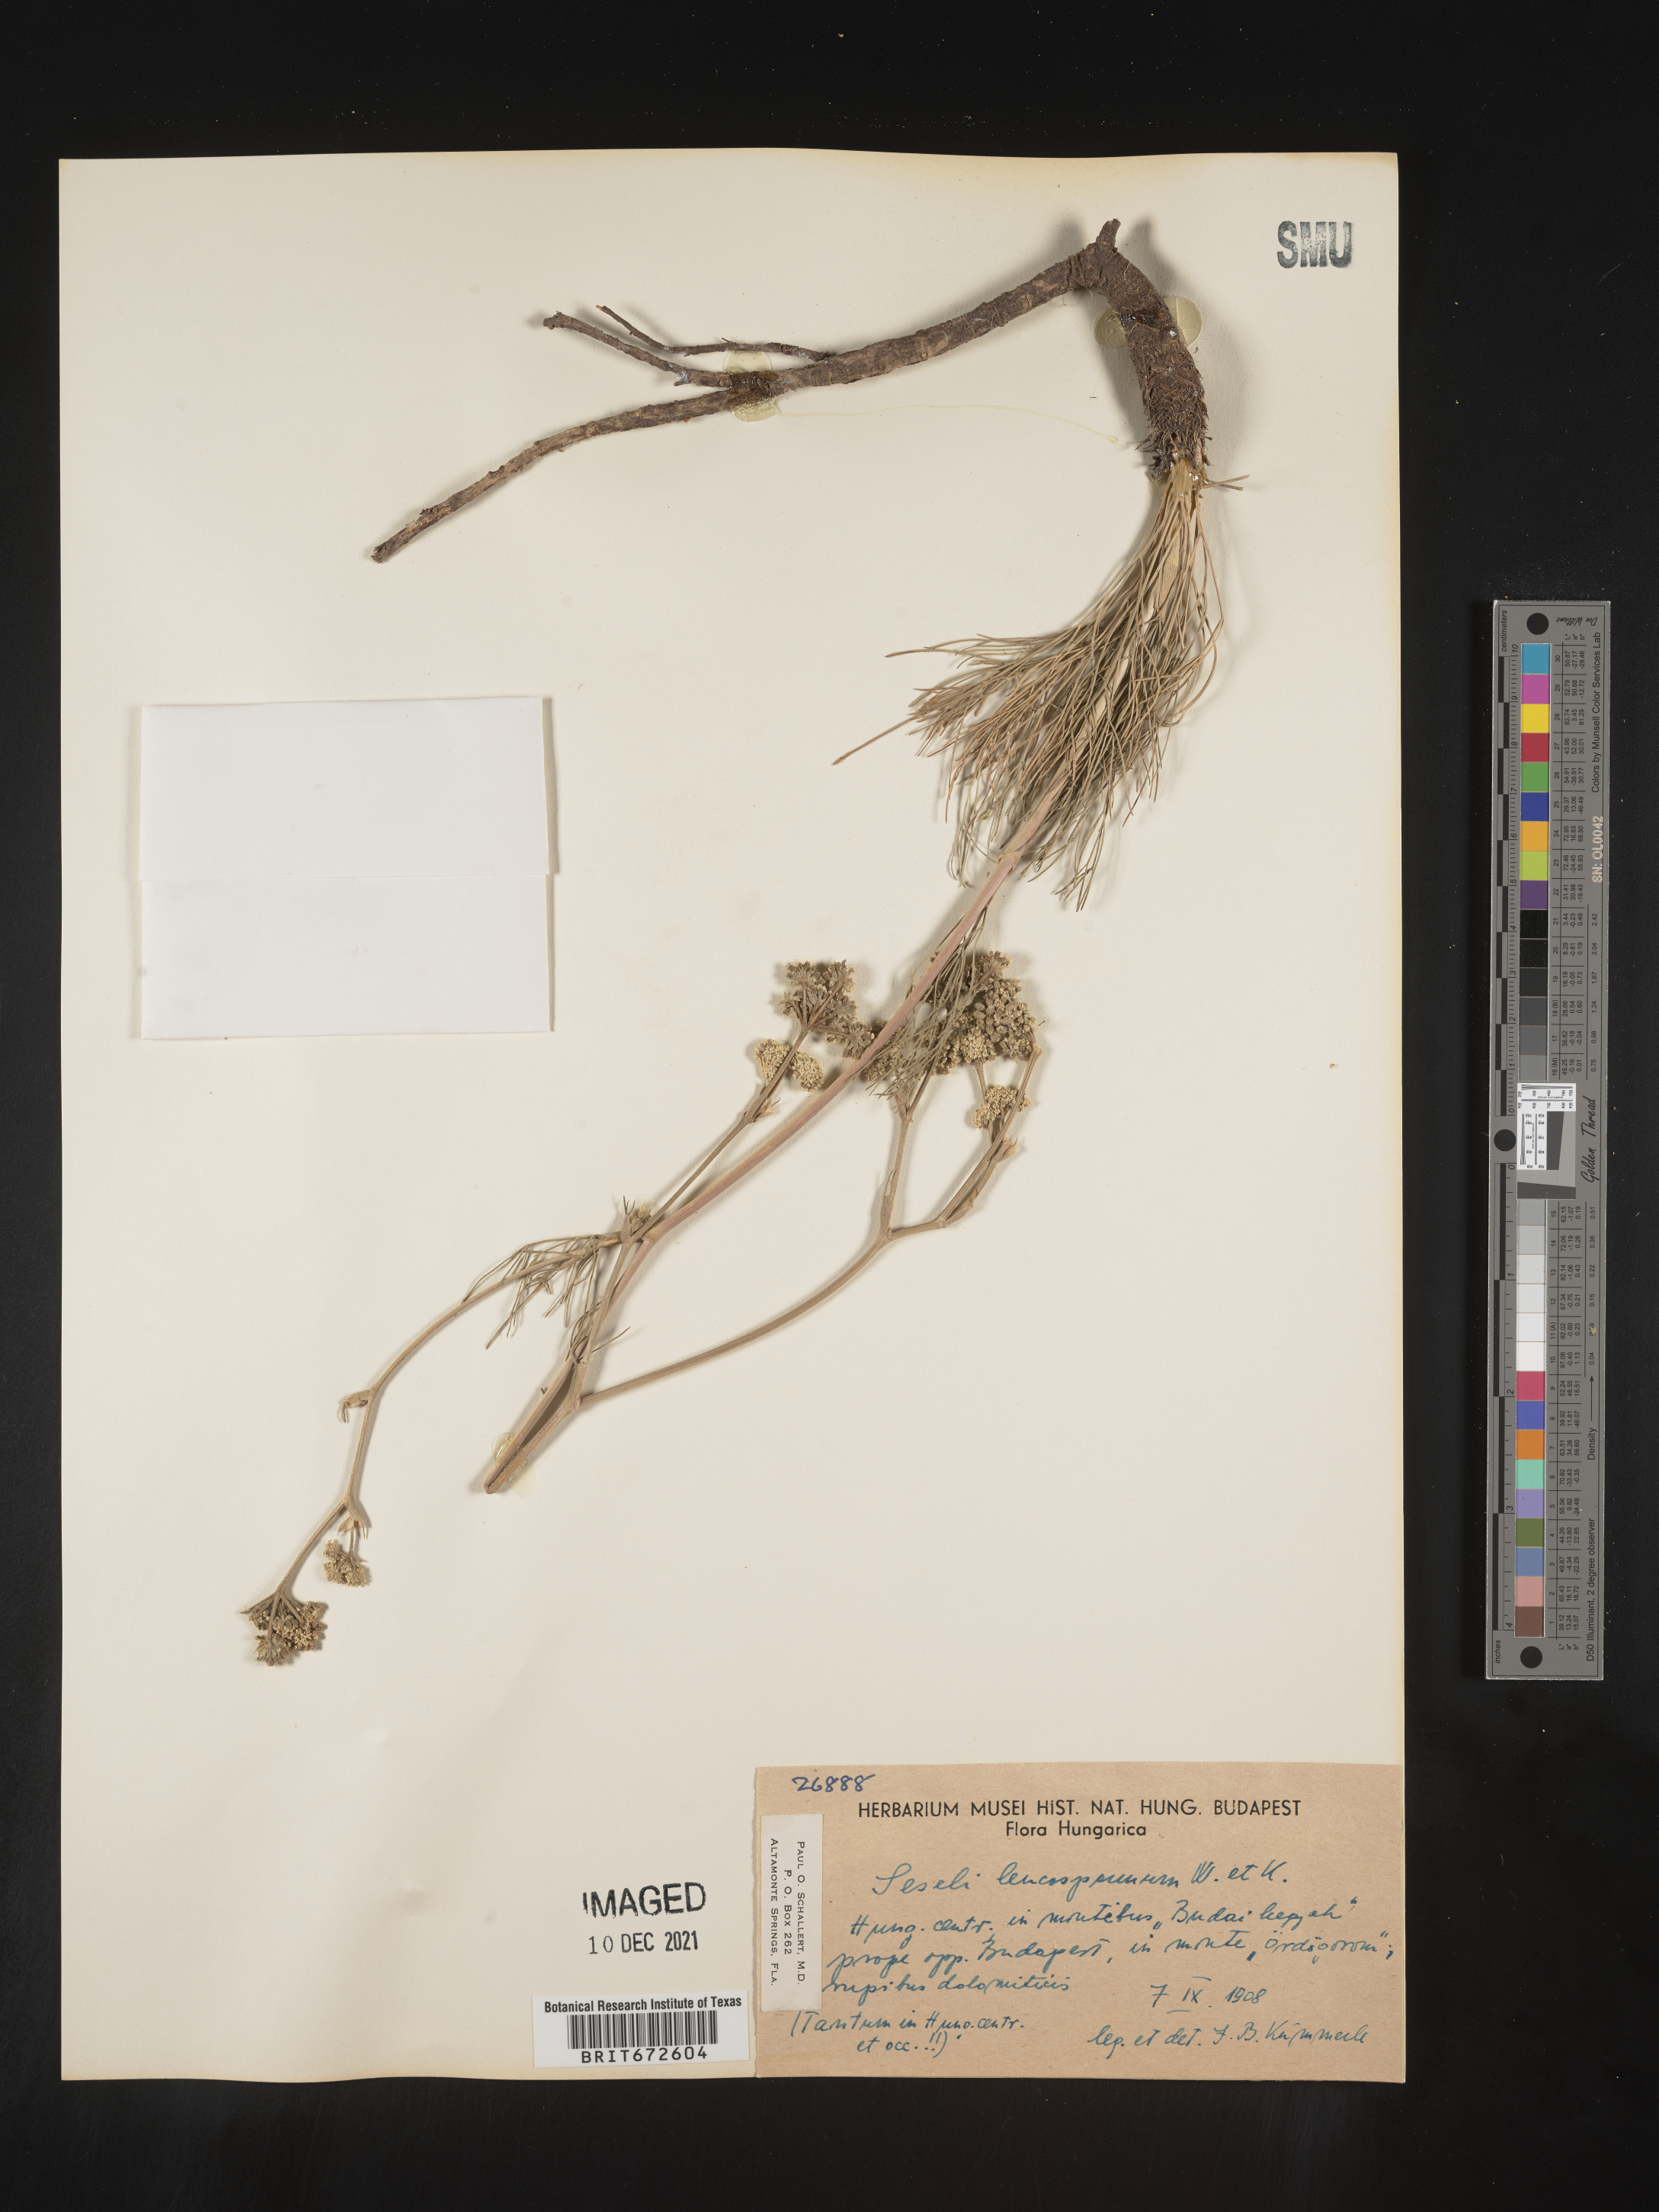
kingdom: Plantae
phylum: Tracheophyta
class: Magnoliopsida
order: Apiales
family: Apiaceae
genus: Seseli
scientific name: Seseli
